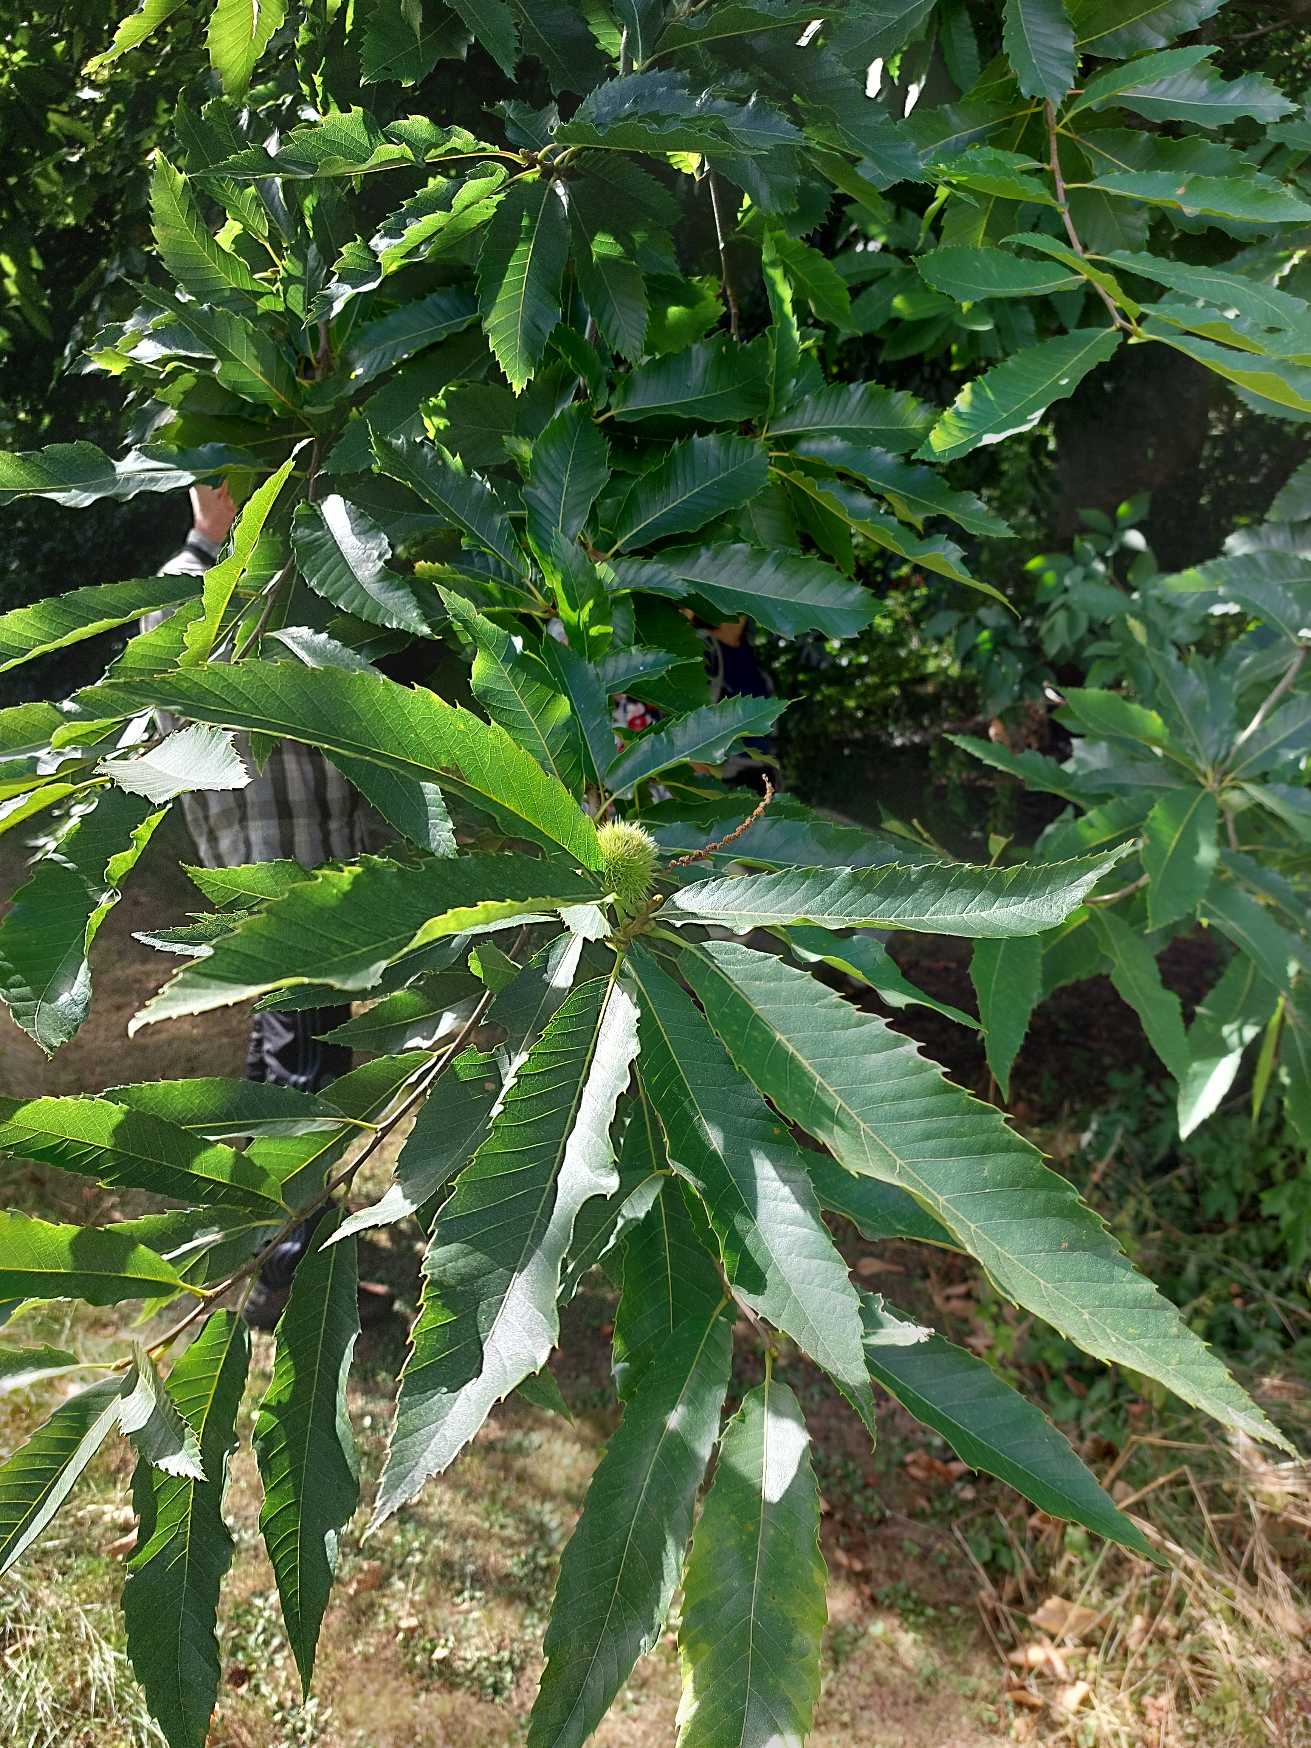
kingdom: Plantae
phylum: Tracheophyta
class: Magnoliopsida
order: Fagales
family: Fagaceae
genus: Castanea
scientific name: Castanea sativa
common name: Ægte kastanie
